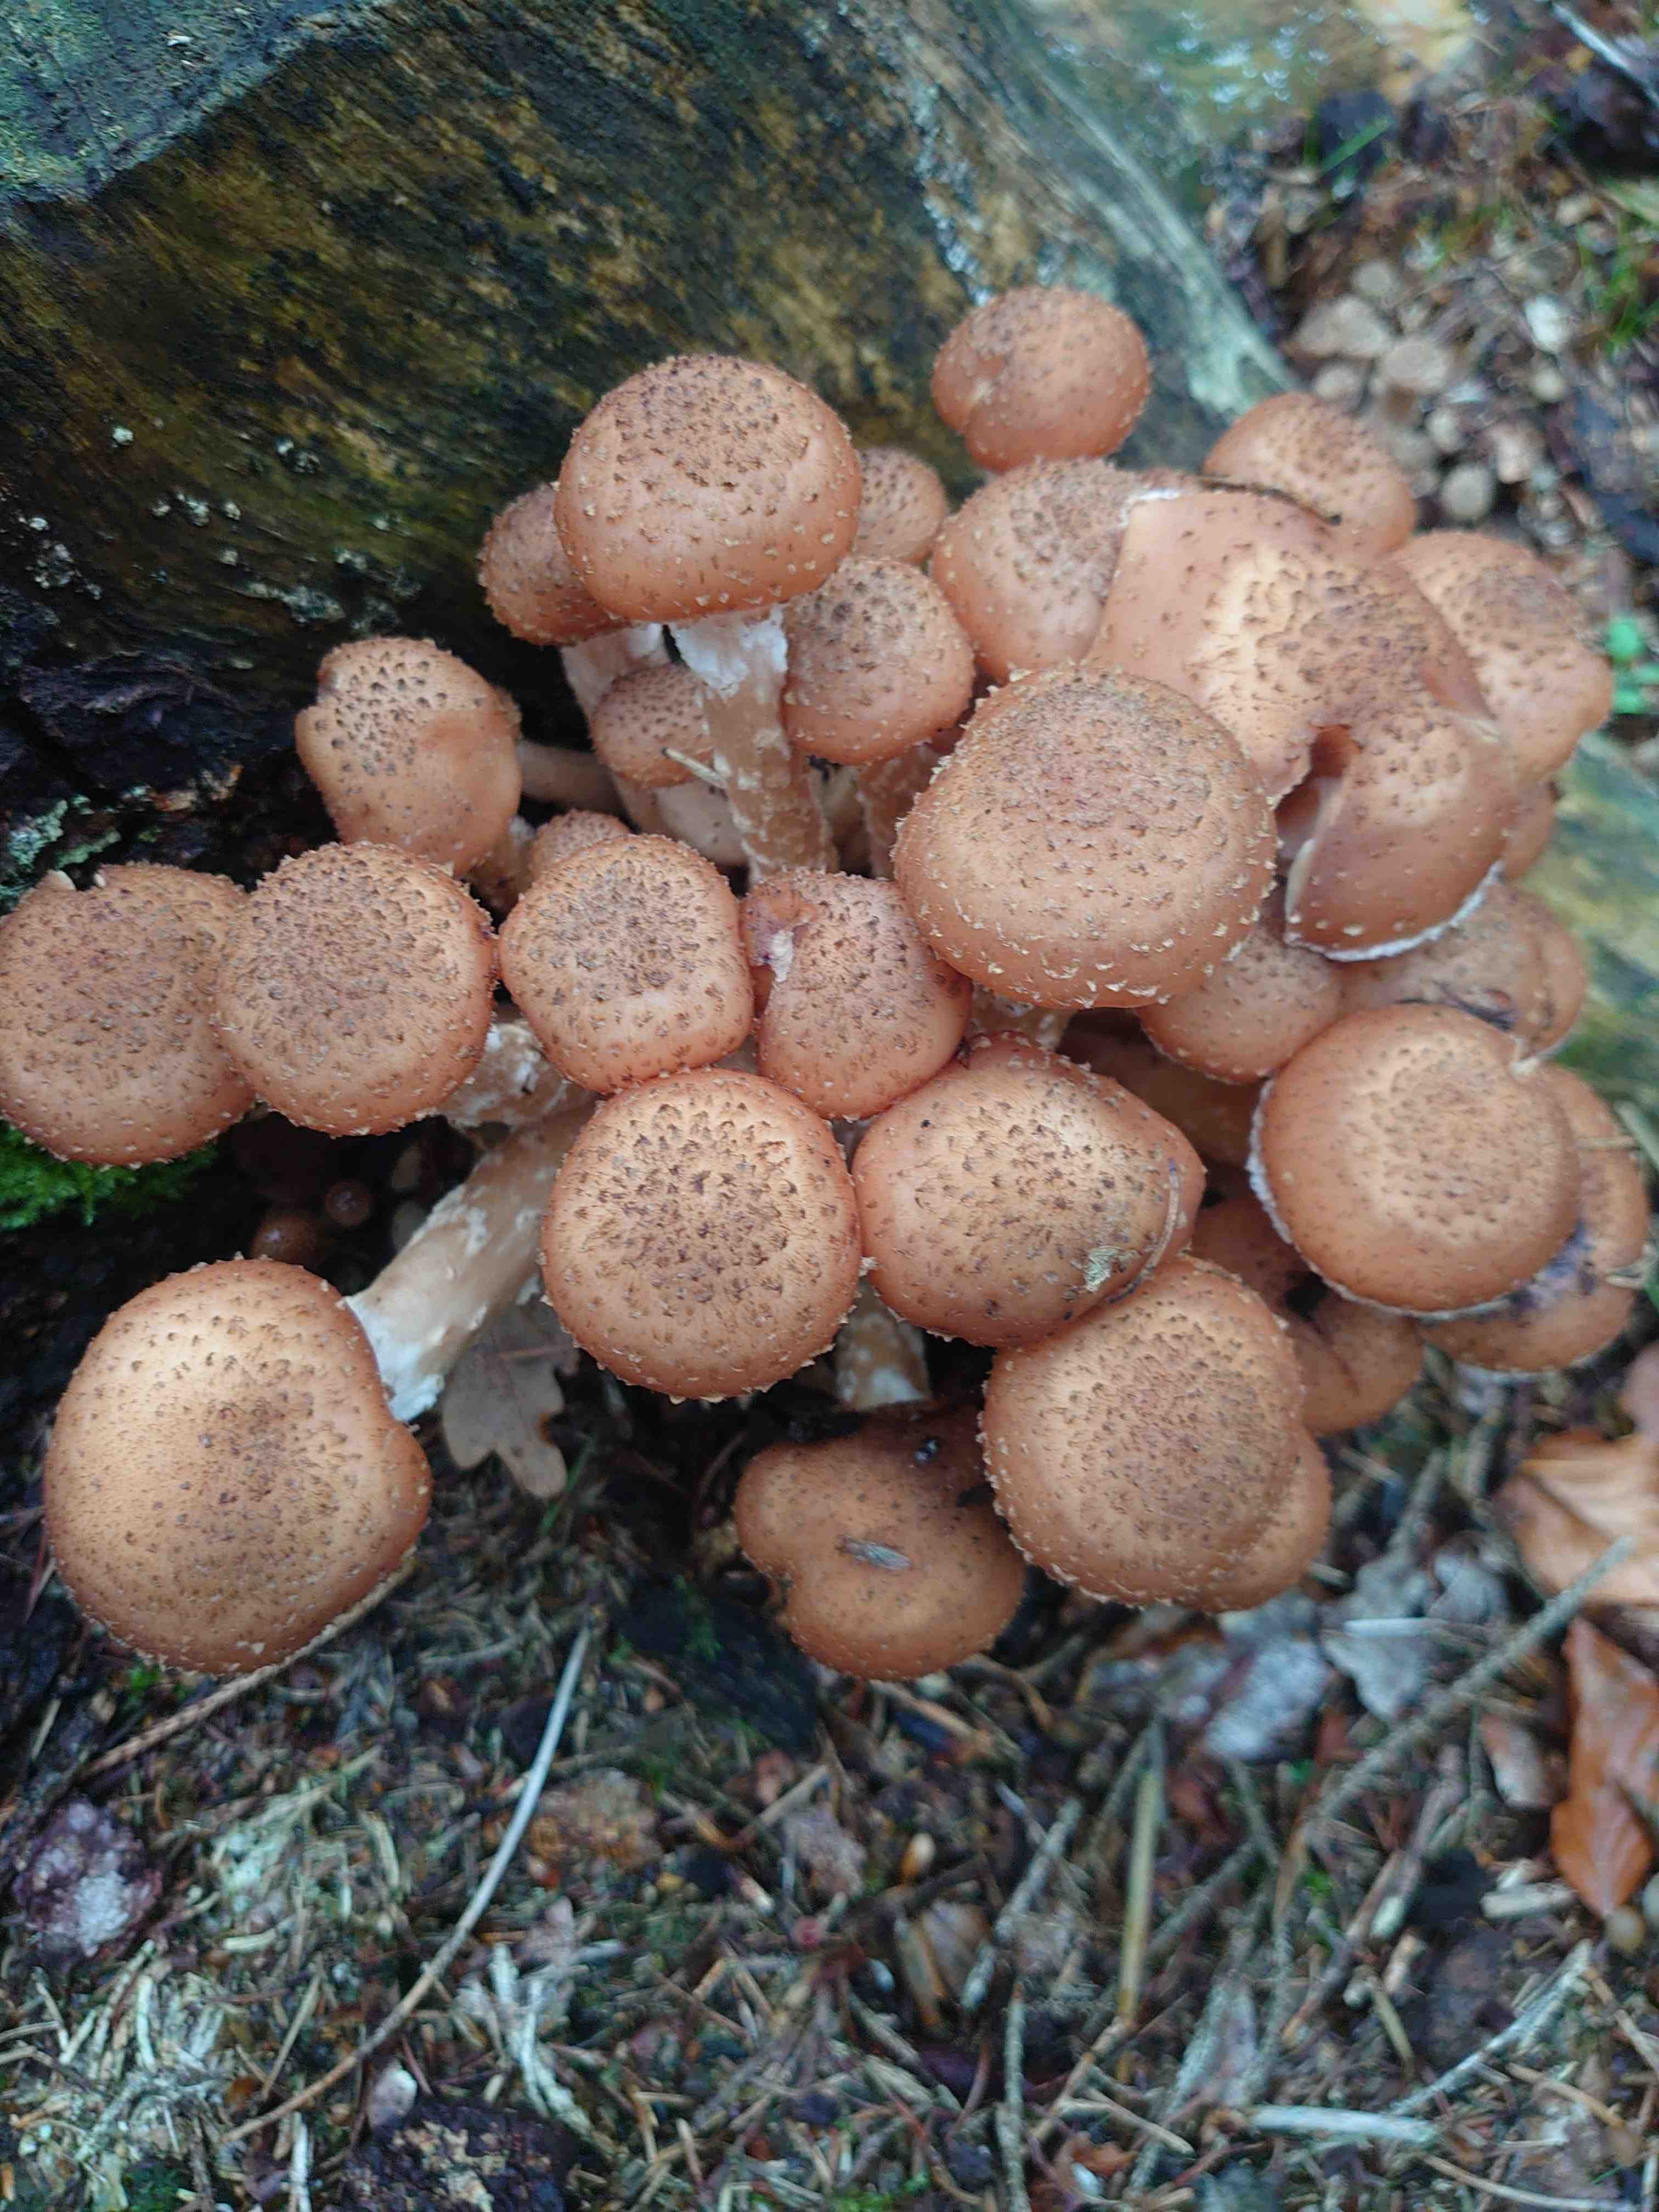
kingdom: Fungi
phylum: Basidiomycota
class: Agaricomycetes
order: Agaricales
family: Physalacriaceae
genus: Armillaria
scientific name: Armillaria
